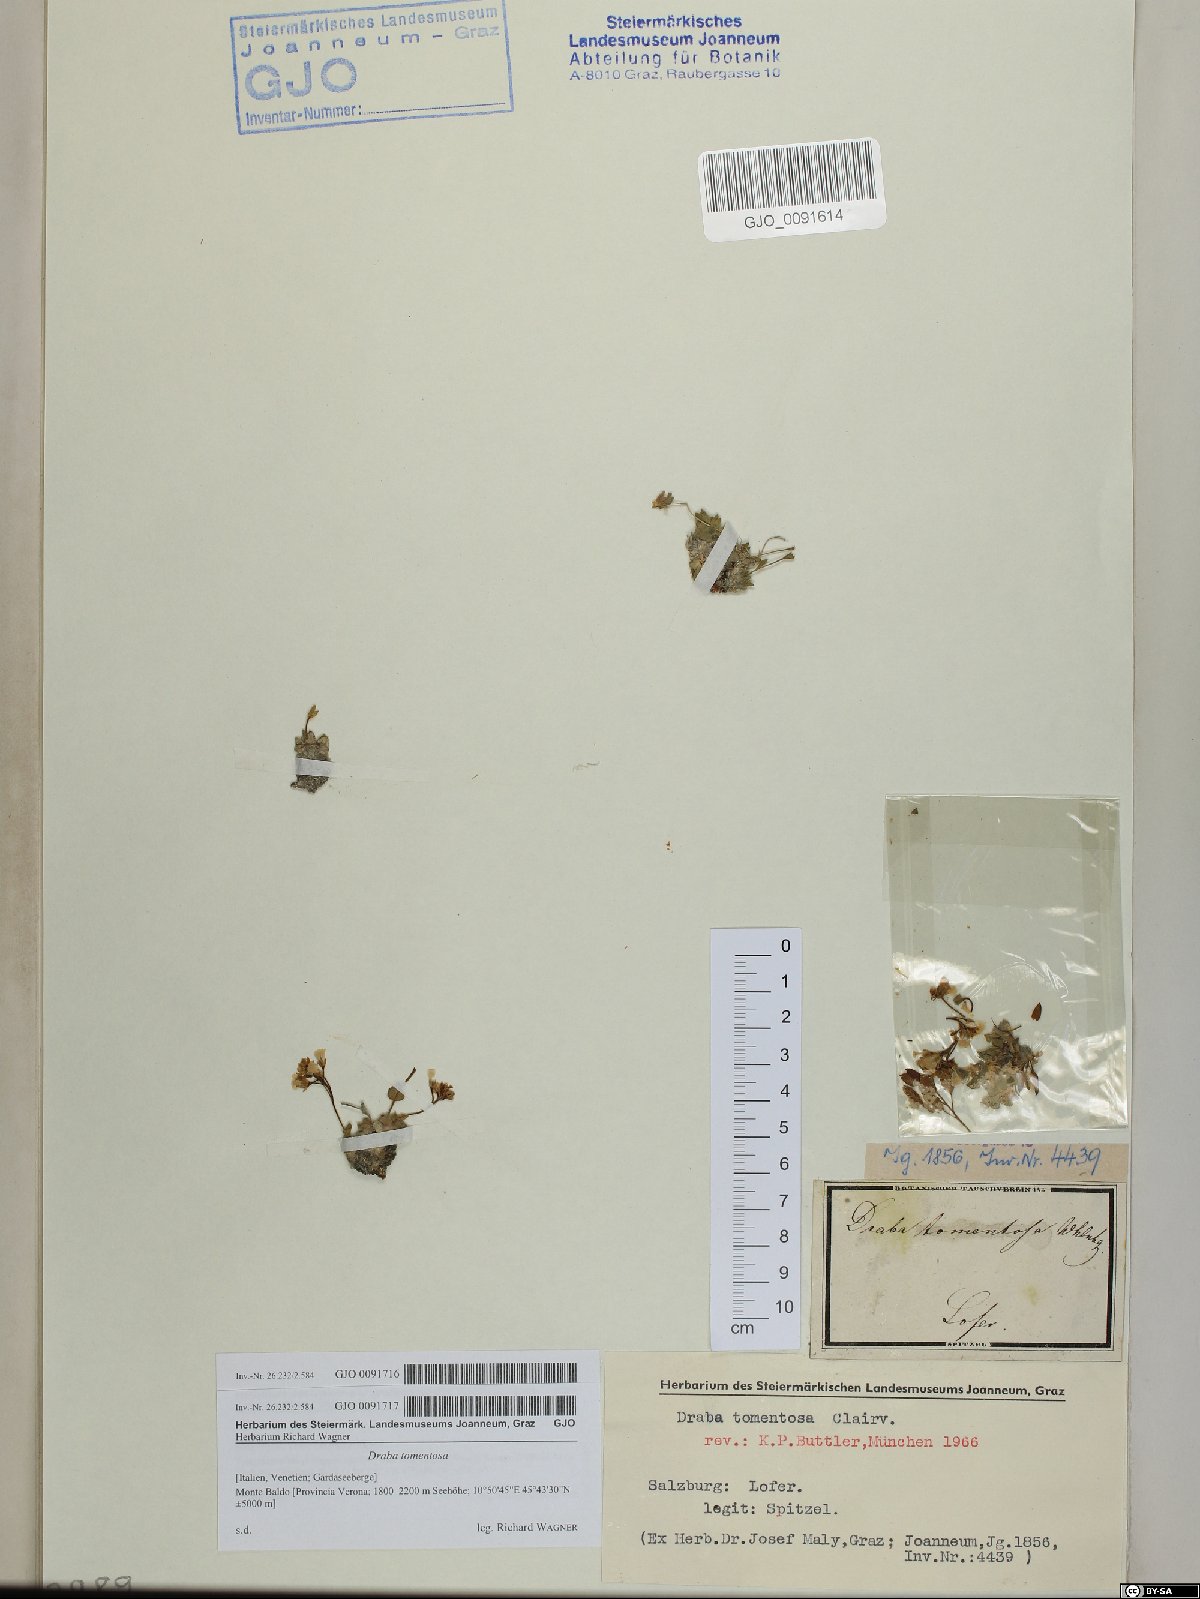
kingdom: Plantae
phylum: Tracheophyta
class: Magnoliopsida
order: Brassicales
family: Brassicaceae
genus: Draba
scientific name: Draba tomentosa
